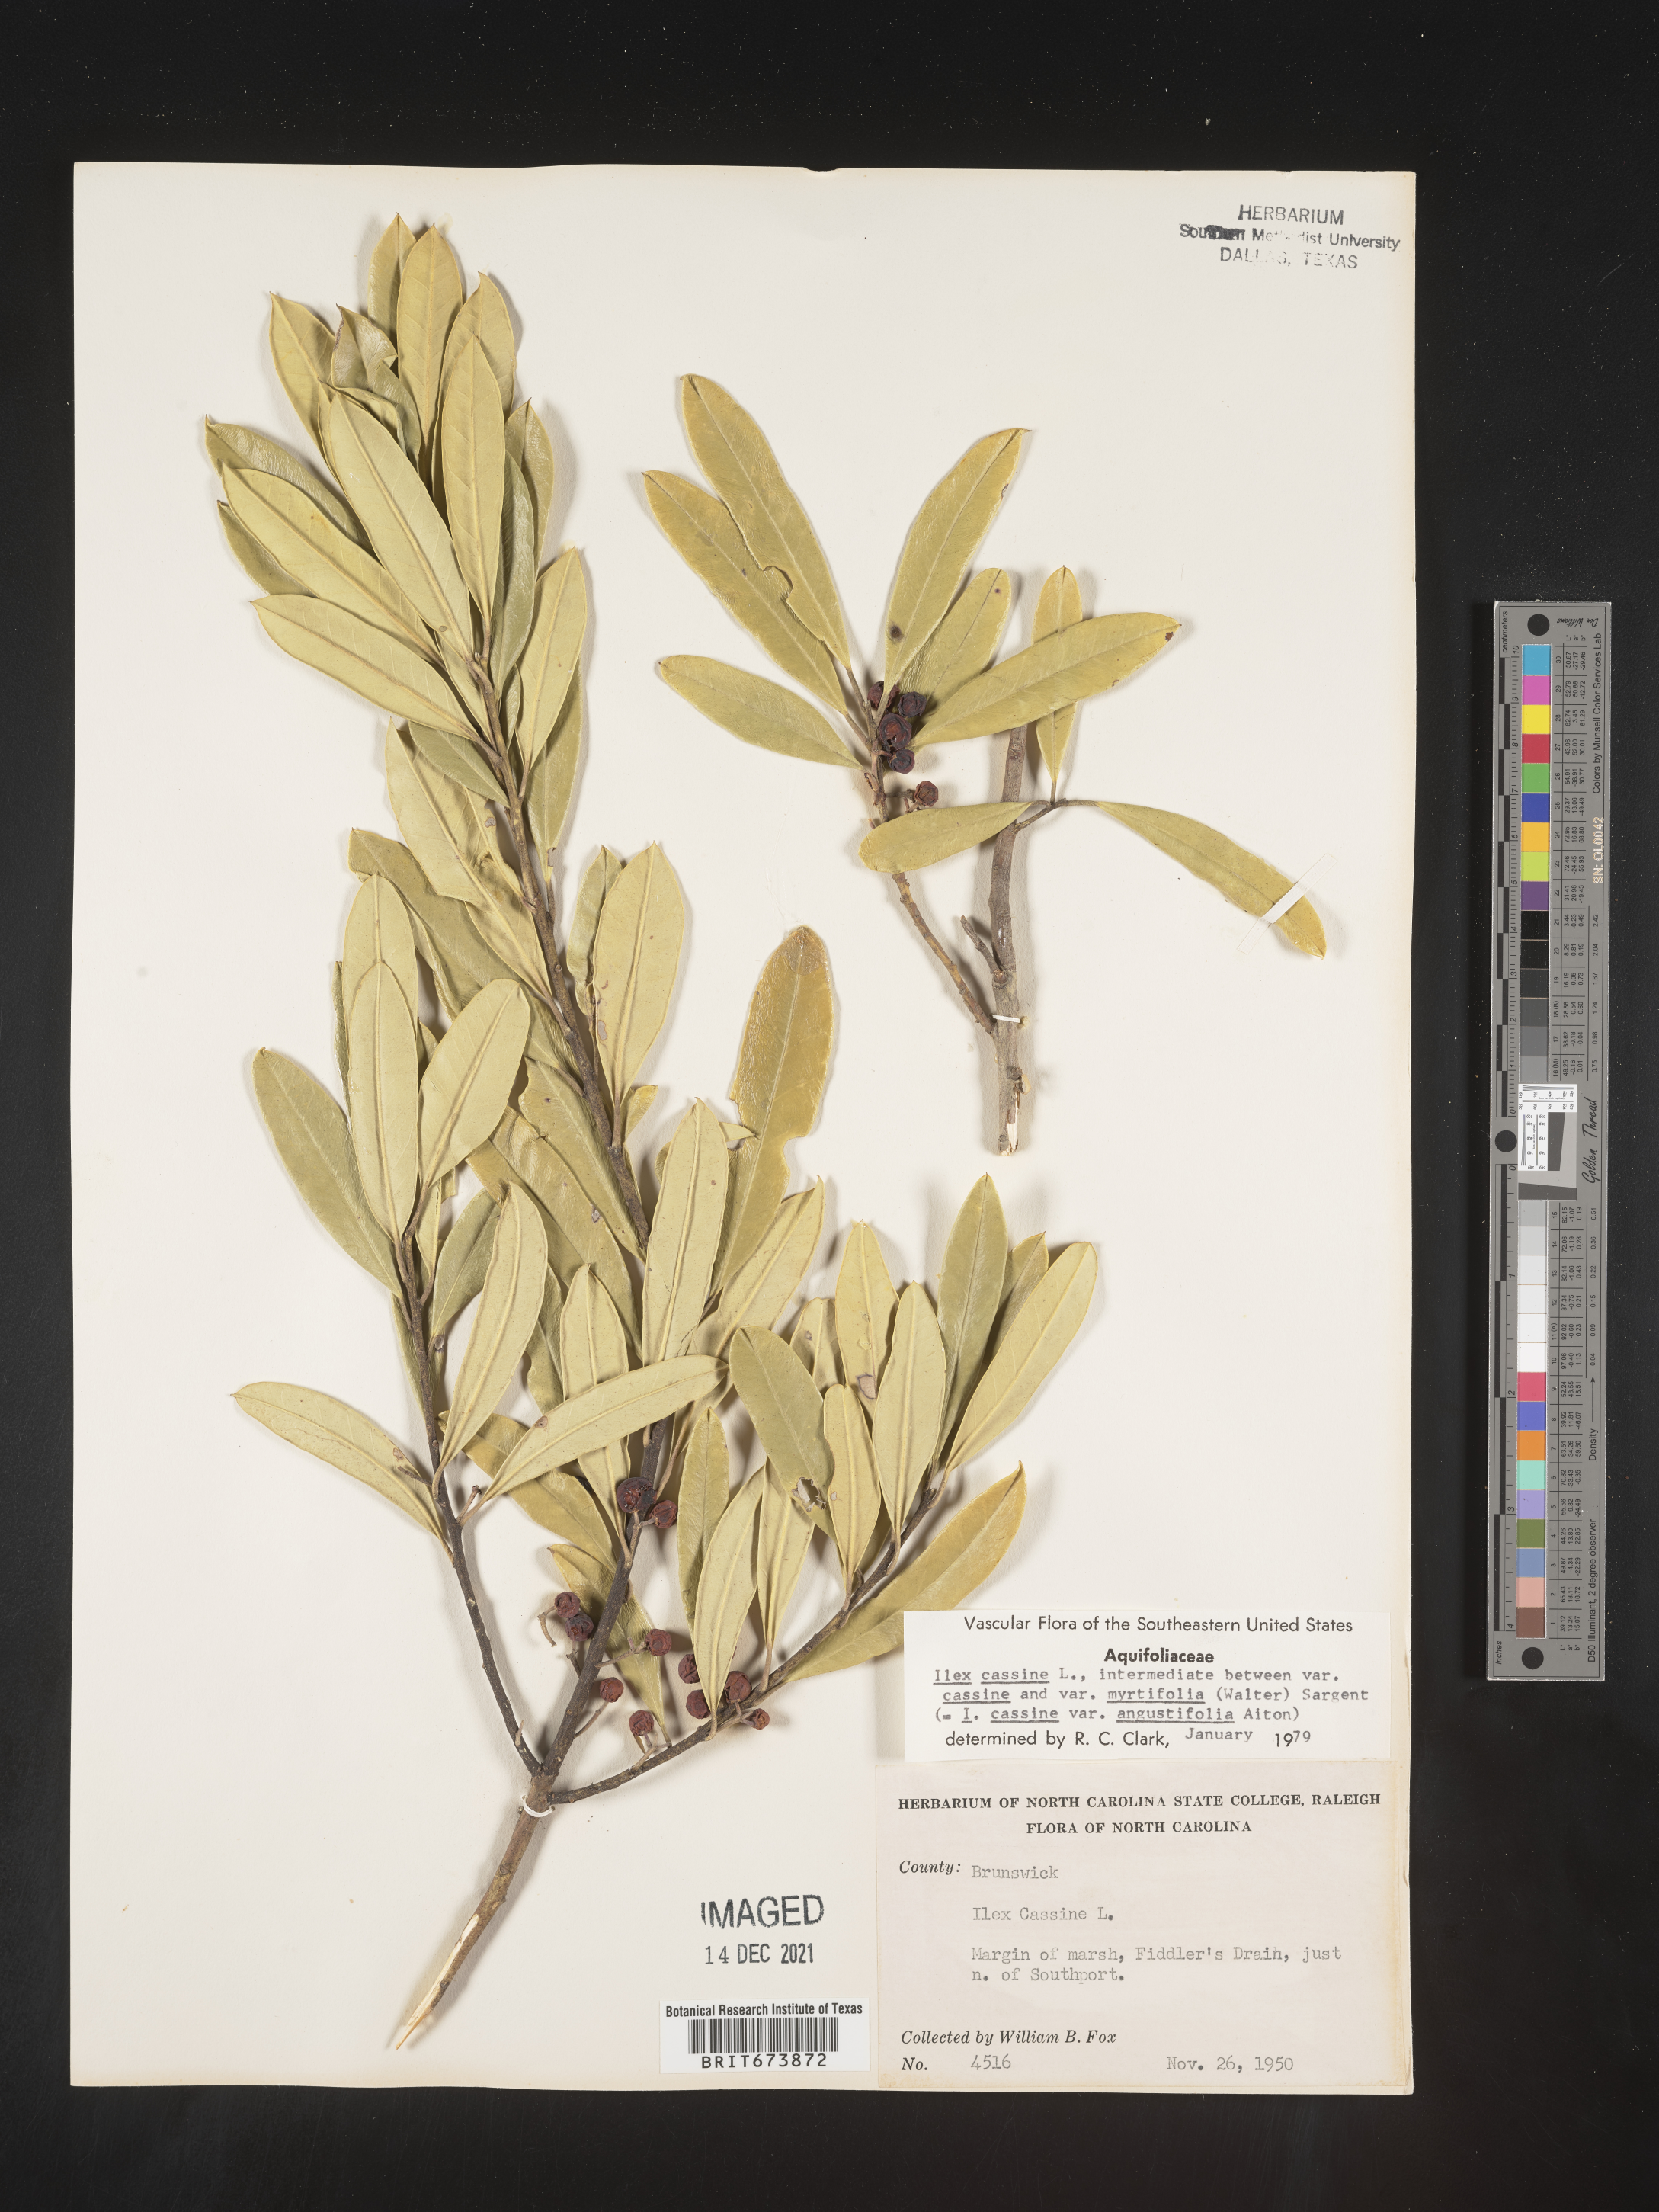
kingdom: Plantae
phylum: Tracheophyta
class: Magnoliopsida
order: Aquifoliales
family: Aquifoliaceae
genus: Ilex
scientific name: Ilex cassine
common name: Dahoon
